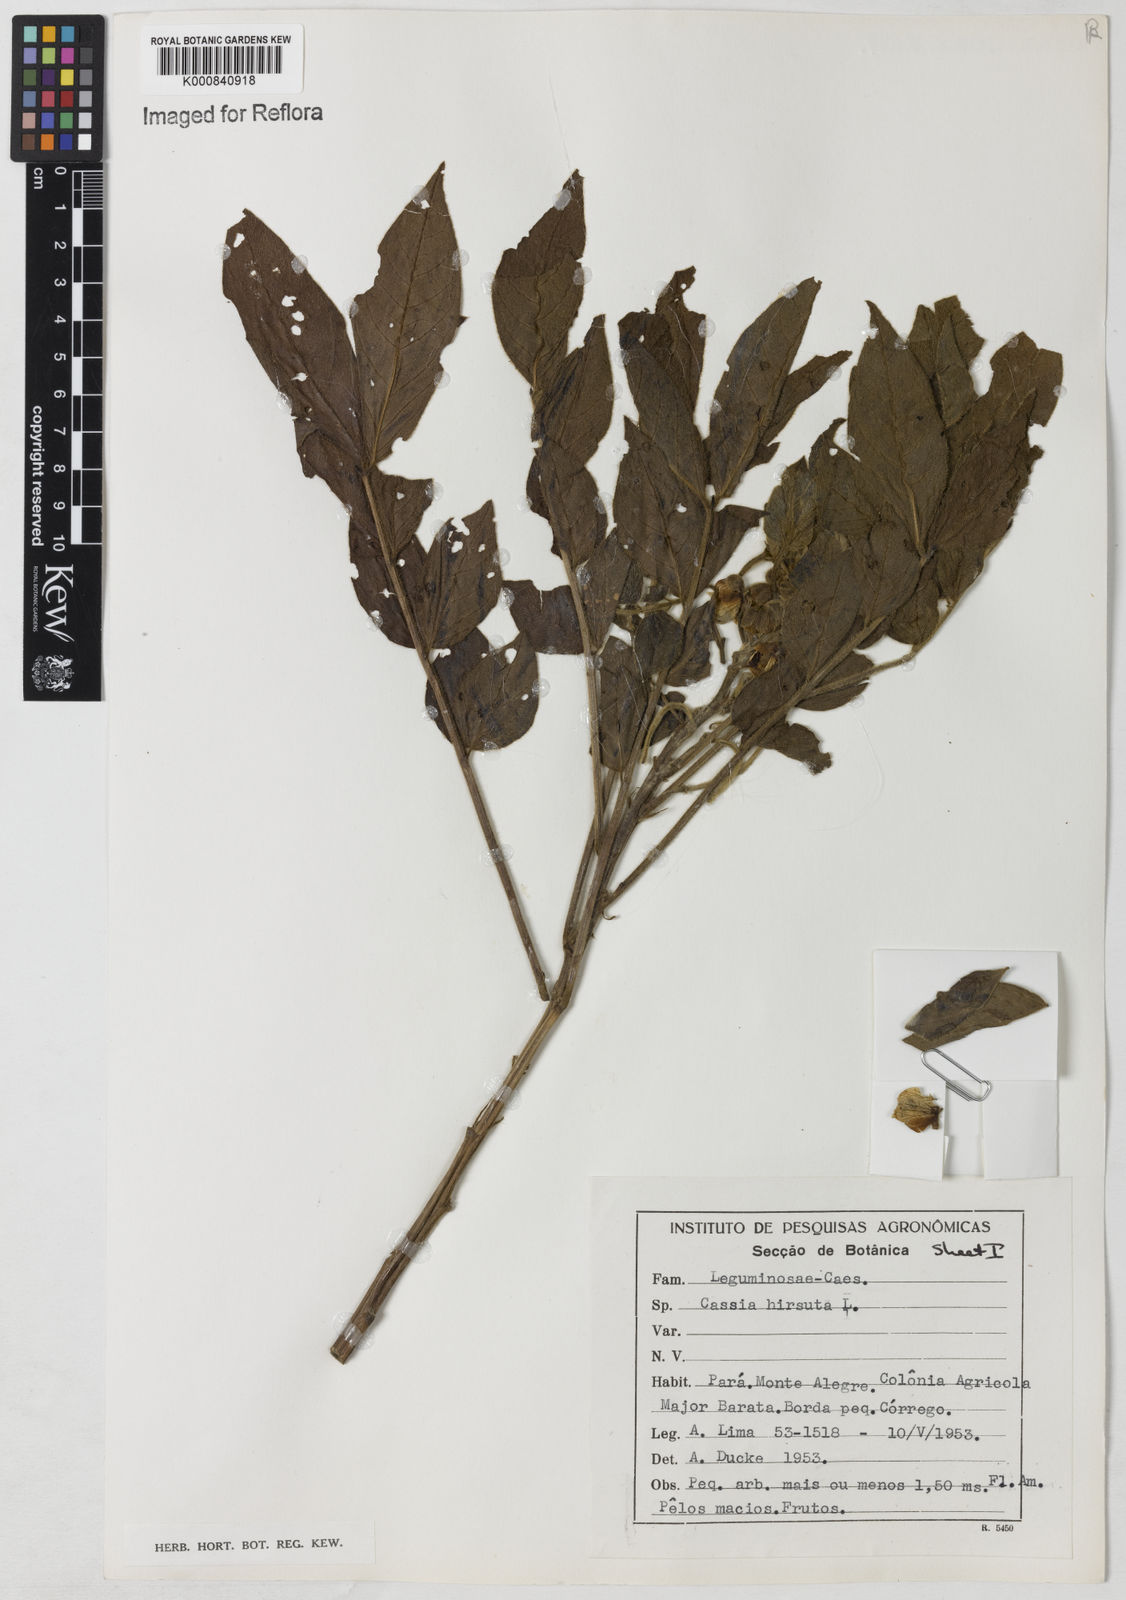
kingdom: Plantae
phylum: Tracheophyta
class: Magnoliopsida
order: Fabales
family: Fabaceae
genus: Senna
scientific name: Senna hirsuta
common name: Woolly senna
